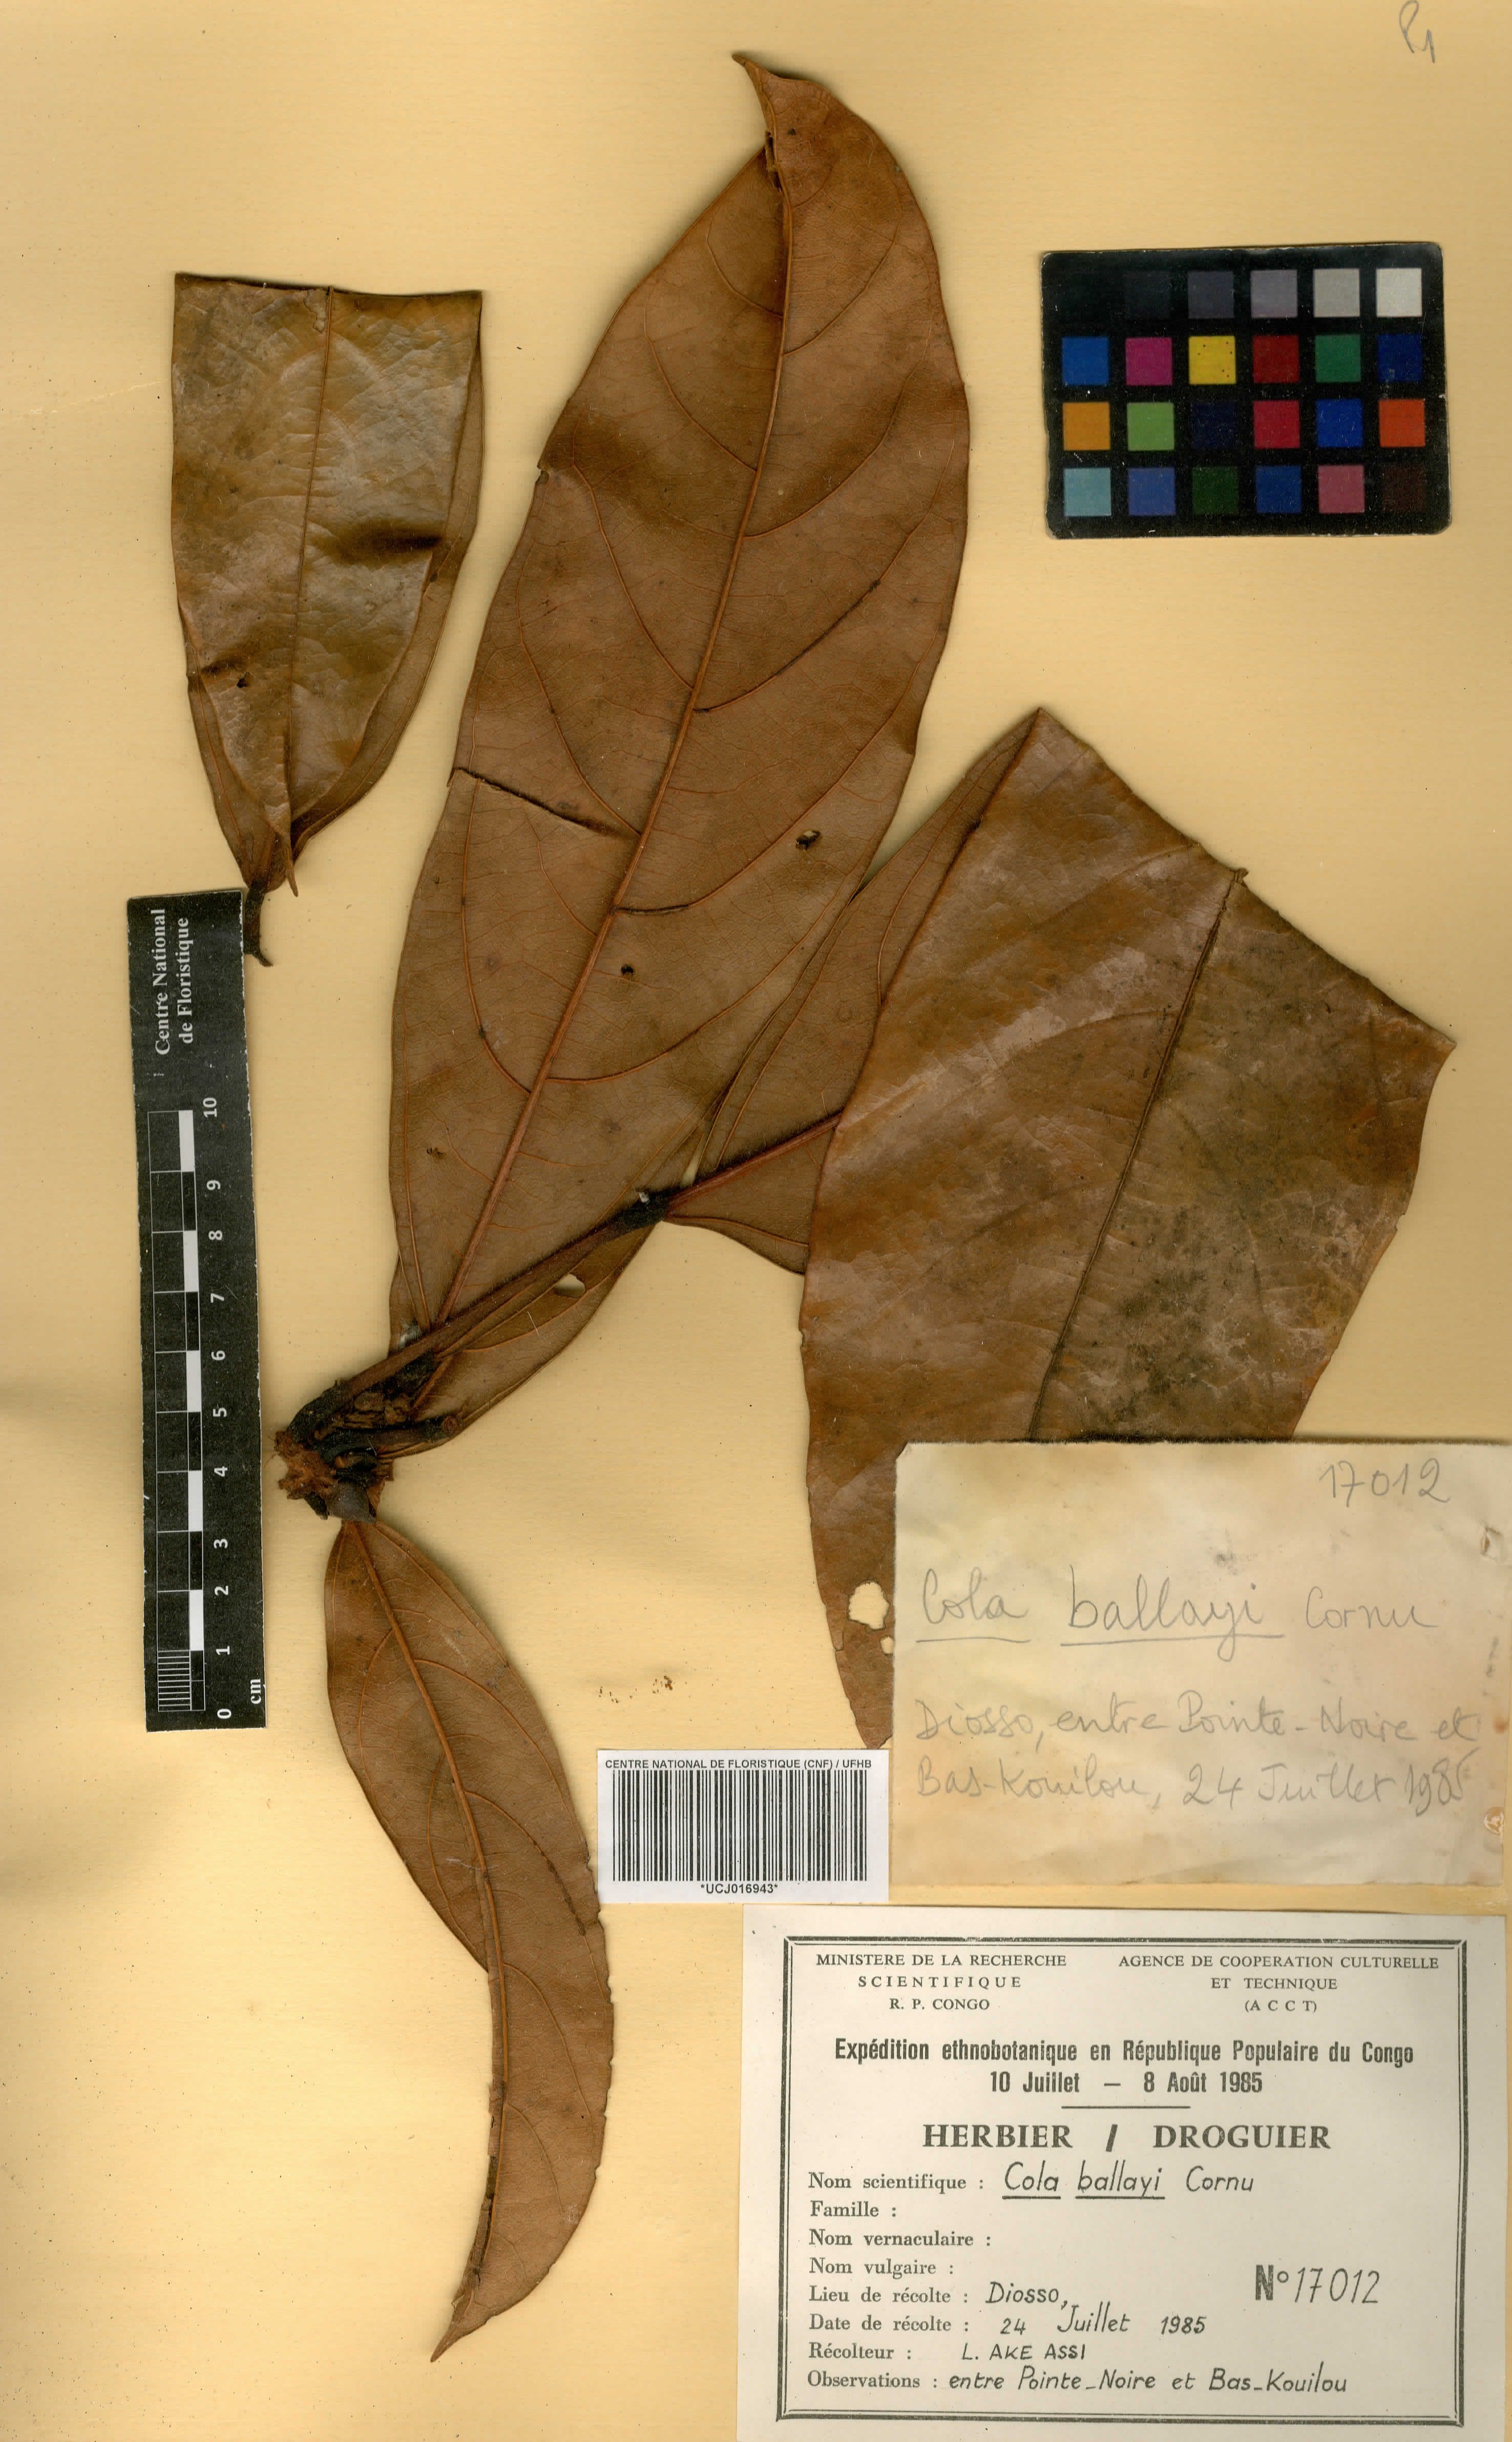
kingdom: Plantae
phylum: Tracheophyta
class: Magnoliopsida
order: Malvales
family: Malvaceae
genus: Cola
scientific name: Cola ballayi
